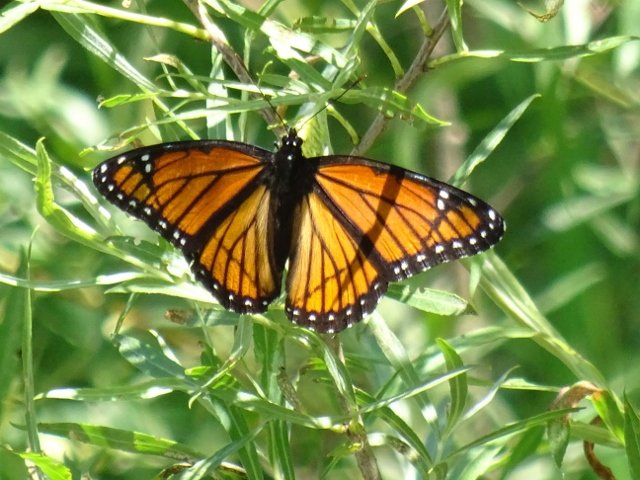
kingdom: Animalia
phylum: Arthropoda
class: Insecta
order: Lepidoptera
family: Nymphalidae
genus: Limenitis
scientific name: Limenitis archippus
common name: Viceroy
